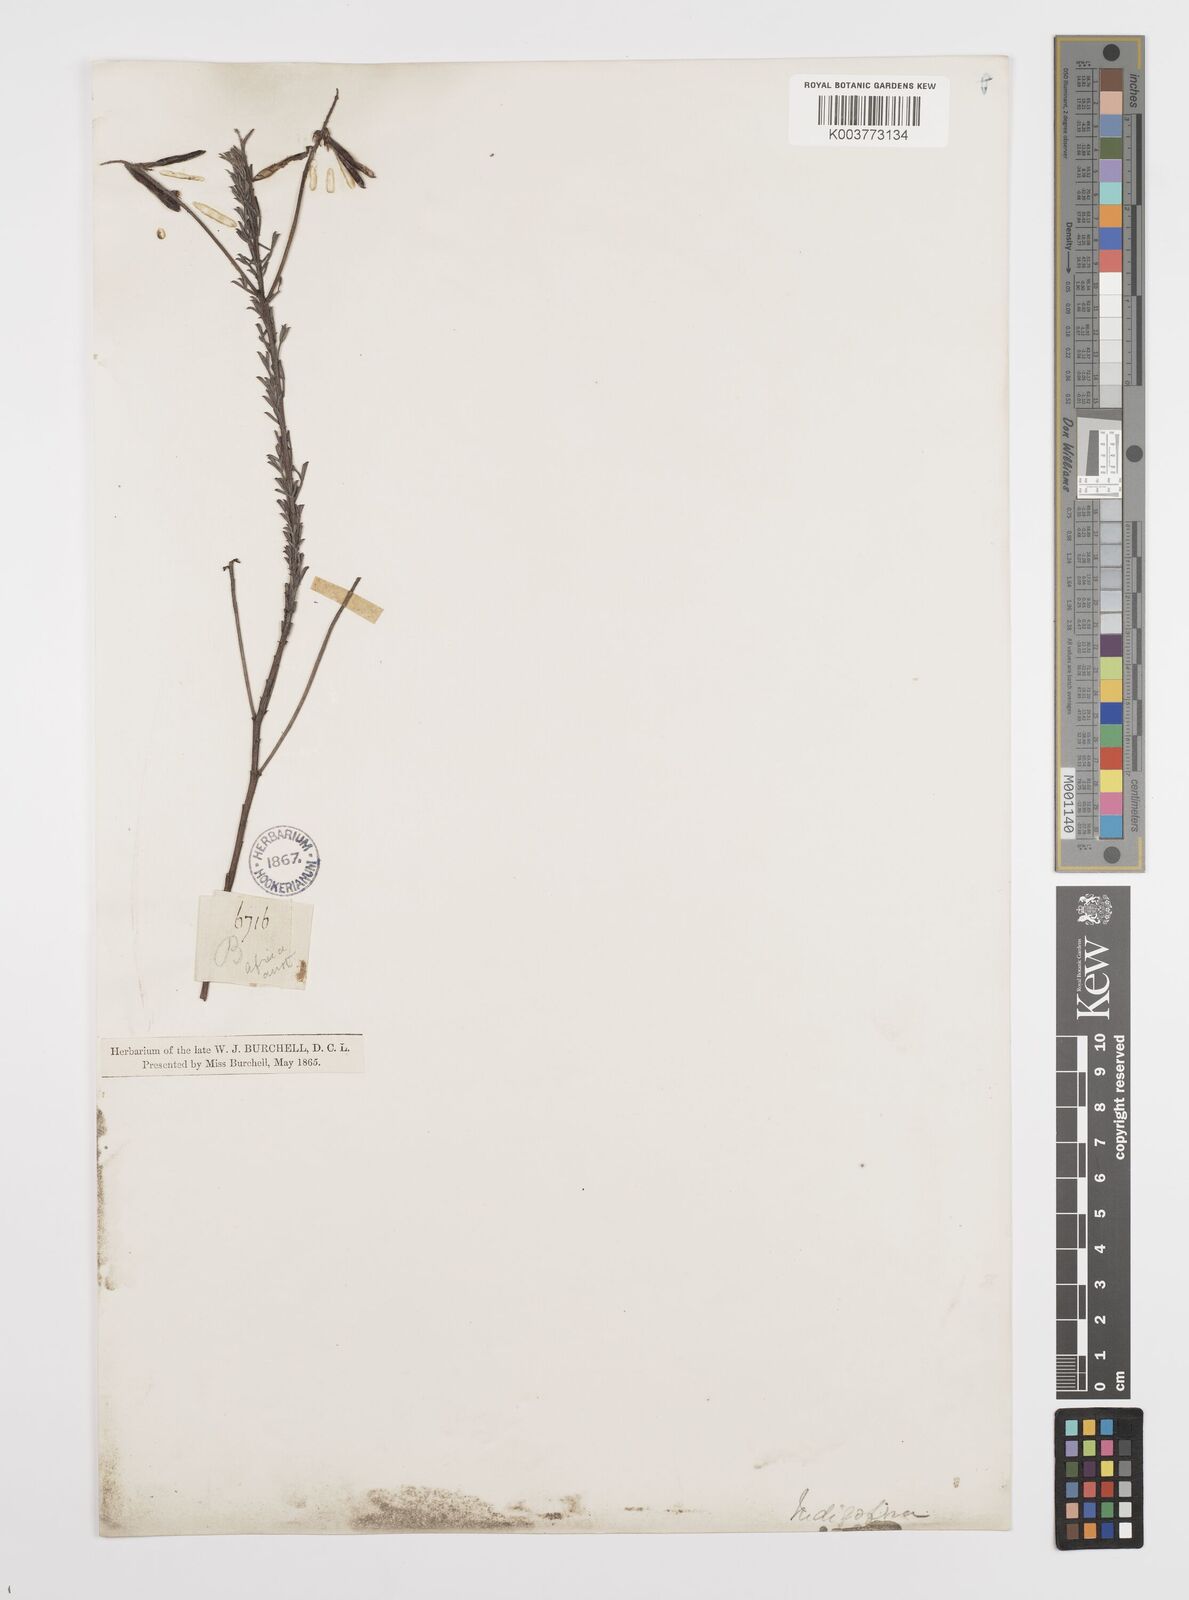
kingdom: Plantae
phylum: Tracheophyta
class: Magnoliopsida
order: Fabales
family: Fabaceae
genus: Indigofera
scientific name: Indigofera
